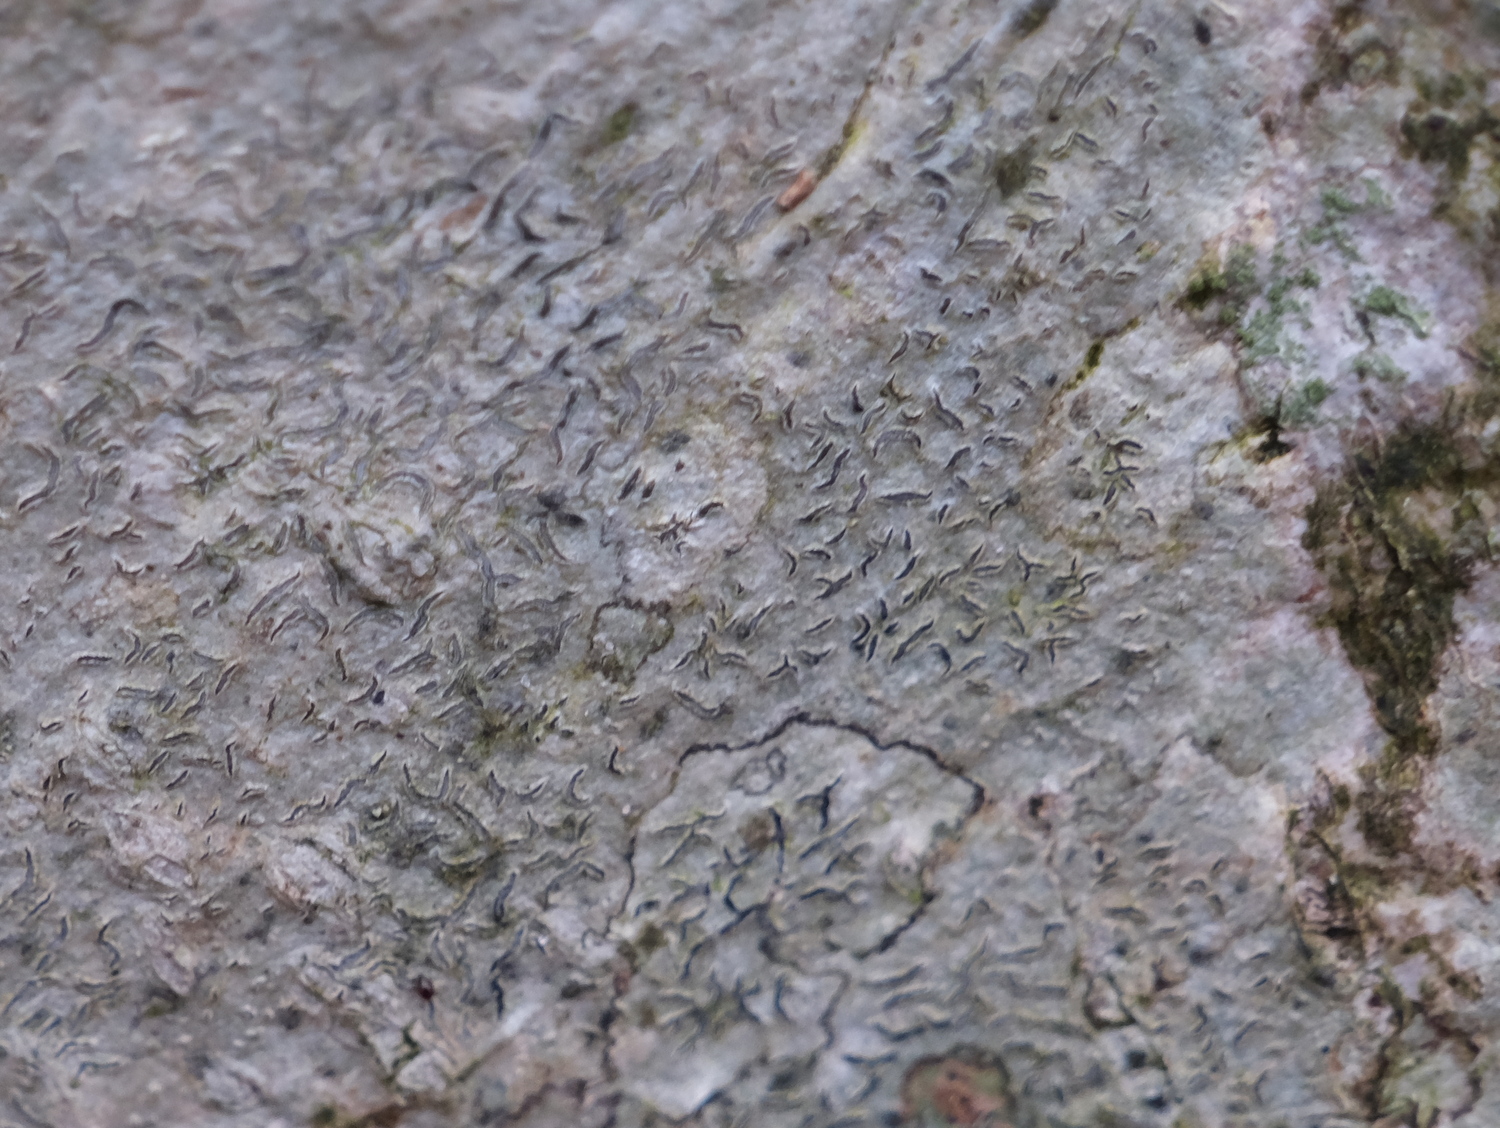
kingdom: Fungi
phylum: Ascomycota
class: Lecanoromycetes
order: Ostropales
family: Graphidaceae
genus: Graphis
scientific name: Graphis scripta
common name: almindelig skriftlav
